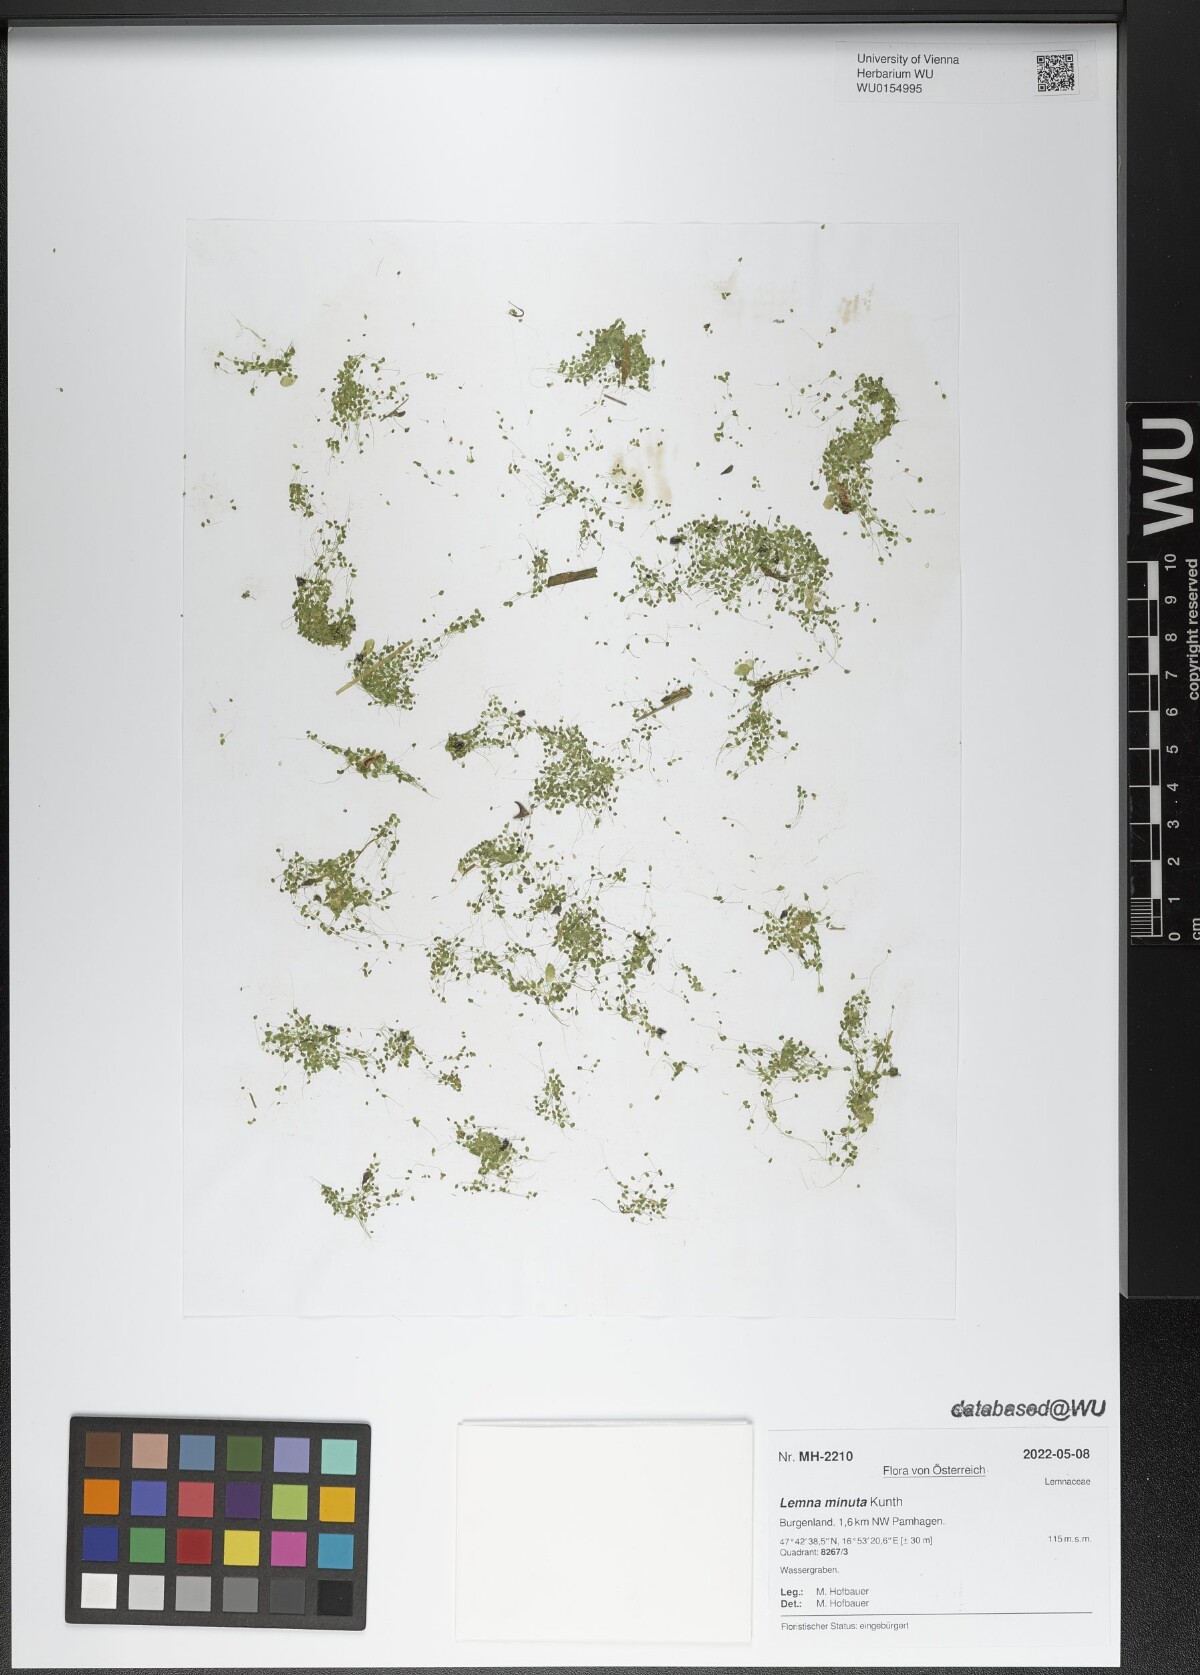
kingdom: Plantae
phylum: Tracheophyta
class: Liliopsida
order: Alismatales
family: Araceae
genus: Lemna
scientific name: Lemna minuta
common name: Least duckweed
